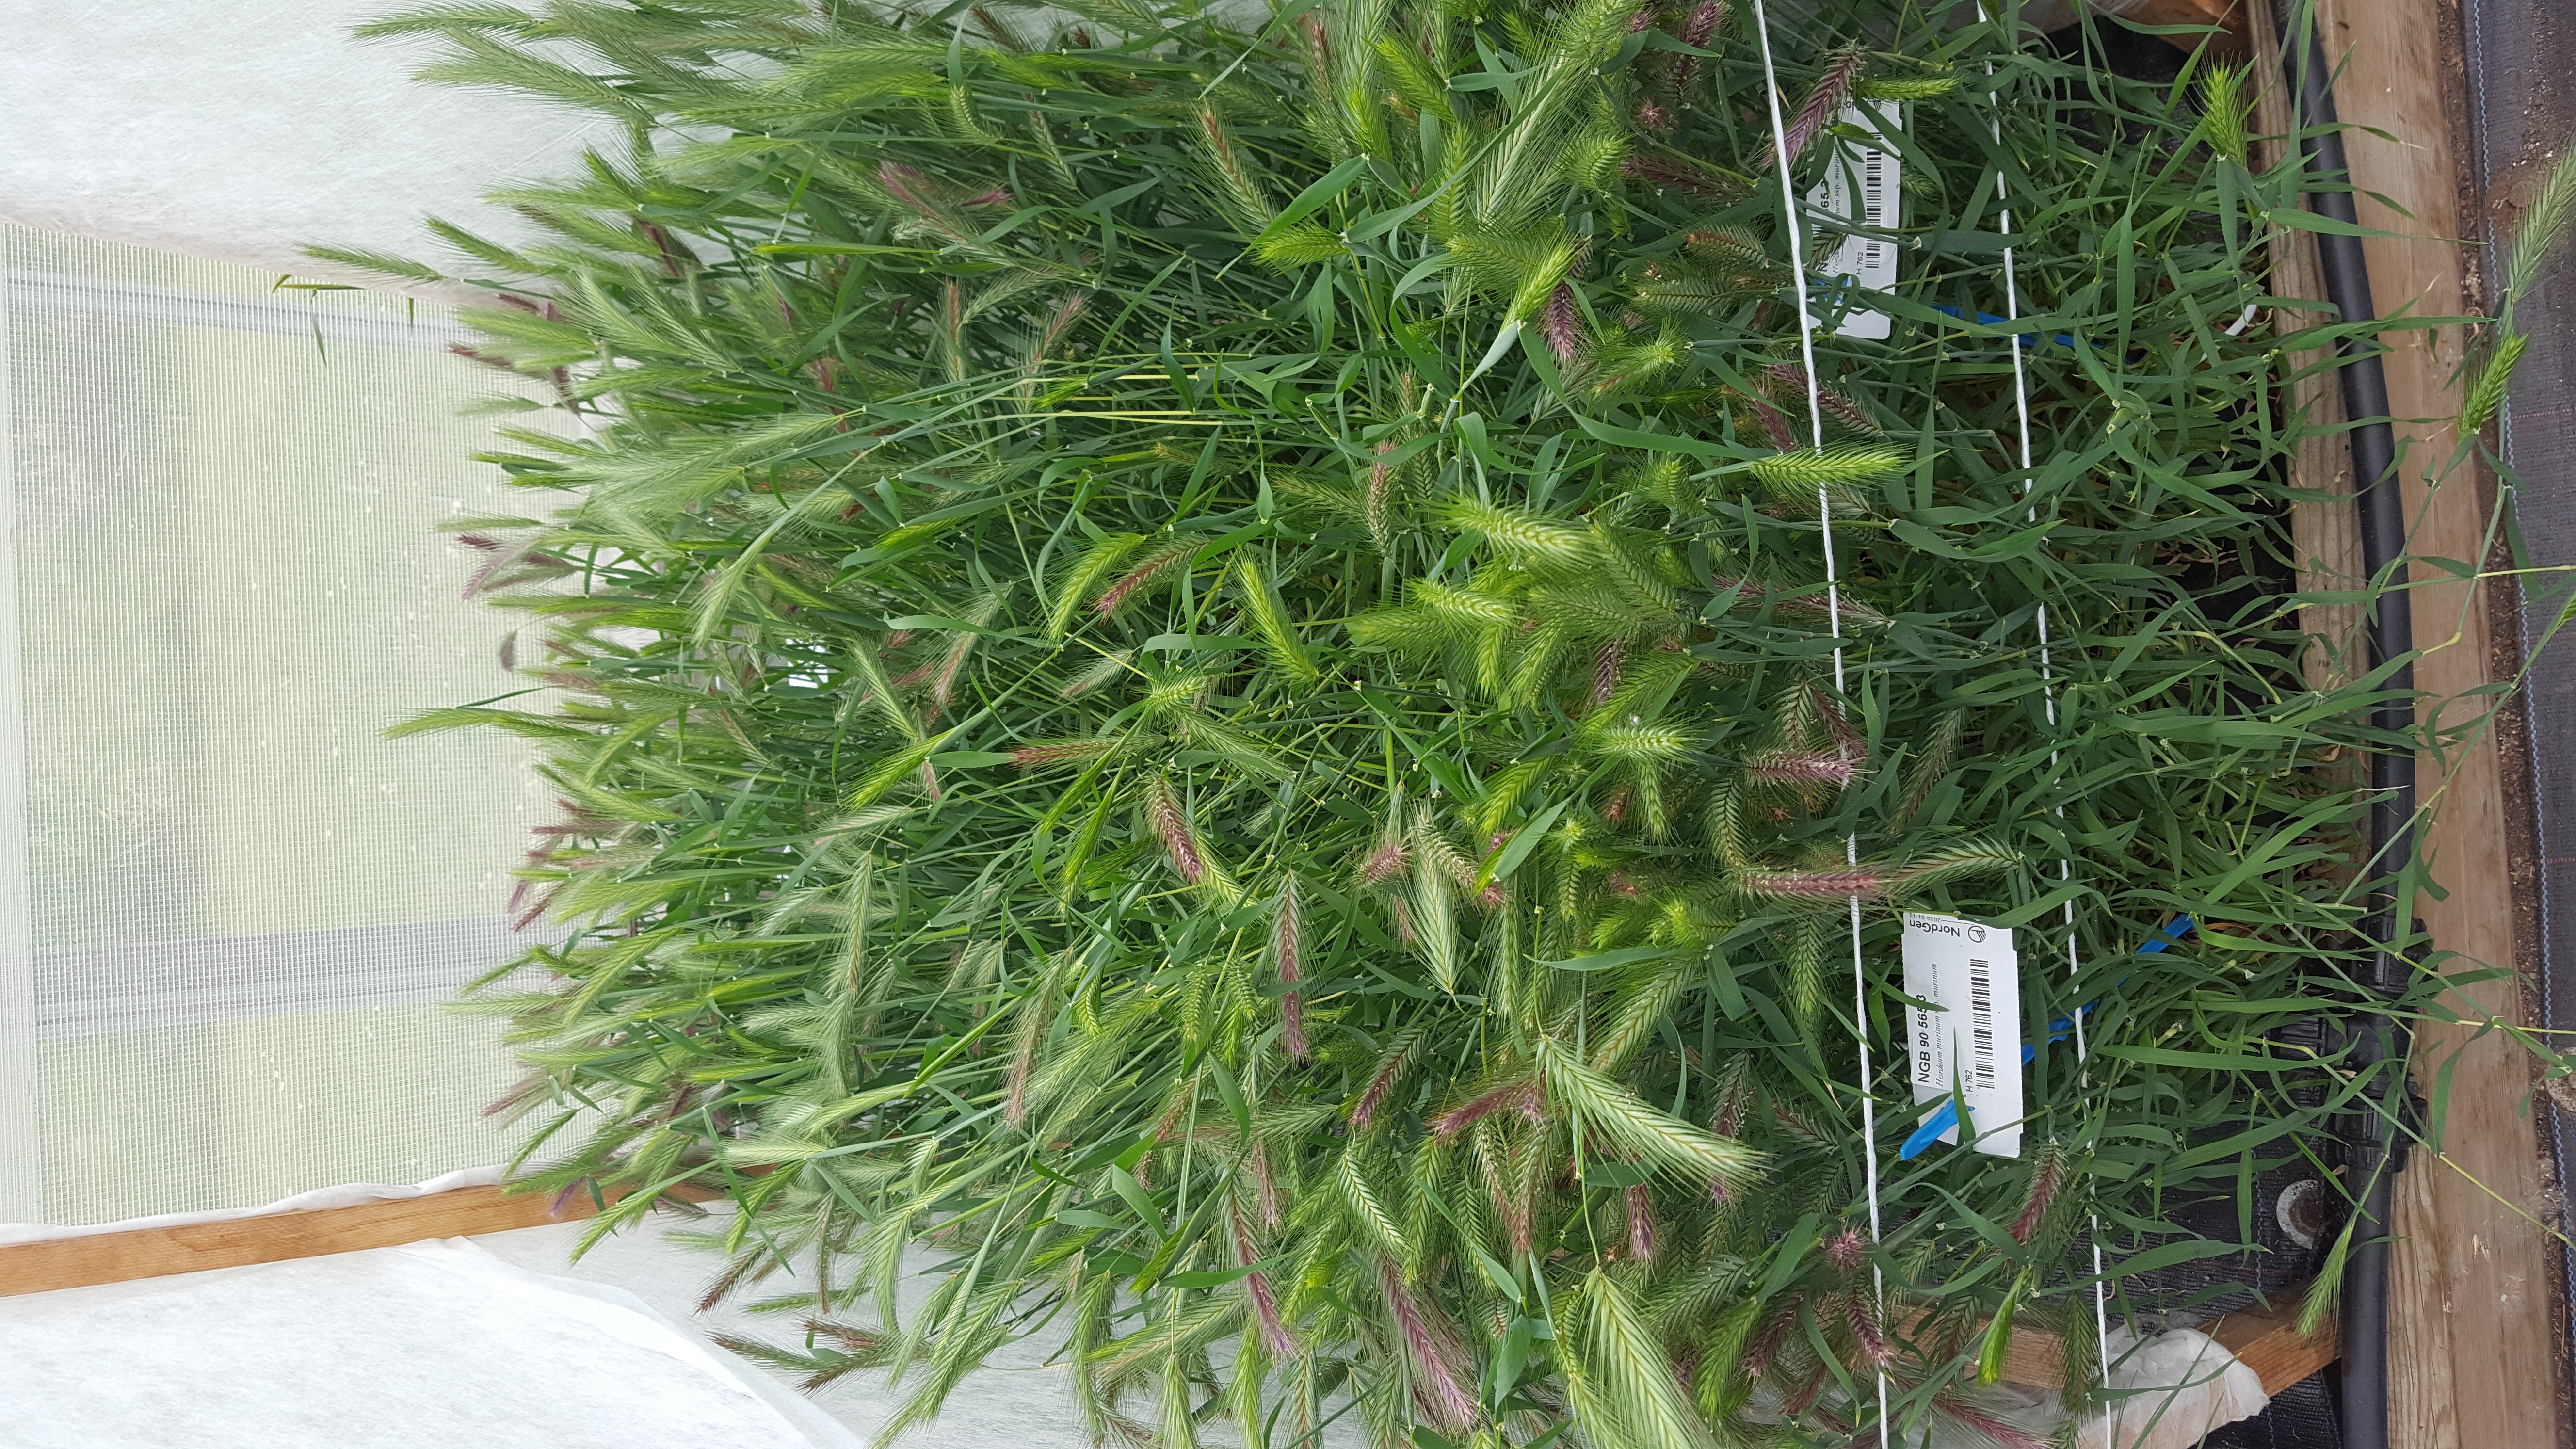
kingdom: Plantae
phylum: Tracheophyta
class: Liliopsida
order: Poales
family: Poaceae
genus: Hordeum
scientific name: Hordeum murinum
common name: Wall barley
